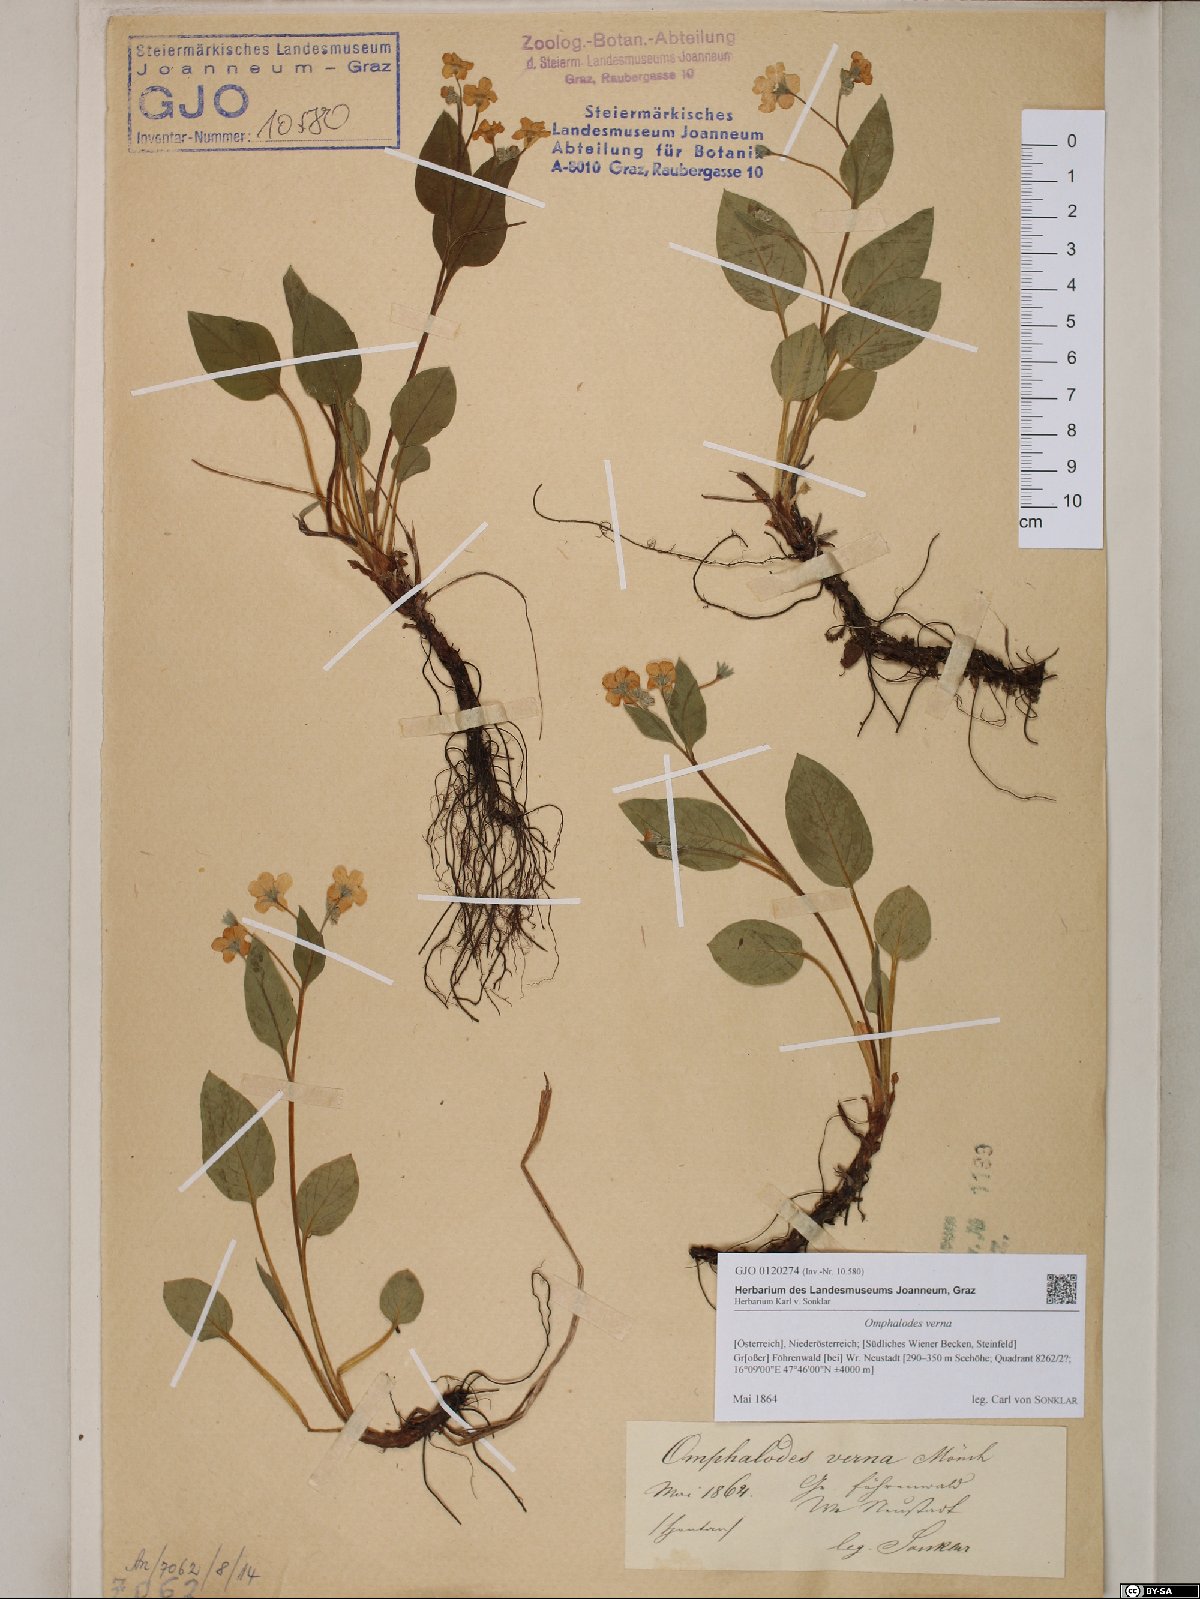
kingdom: Plantae
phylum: Tracheophyta
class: Magnoliopsida
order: Boraginales
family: Boraginaceae
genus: Omphalodes
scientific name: Omphalodes verna
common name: Blue-eyed-mary
